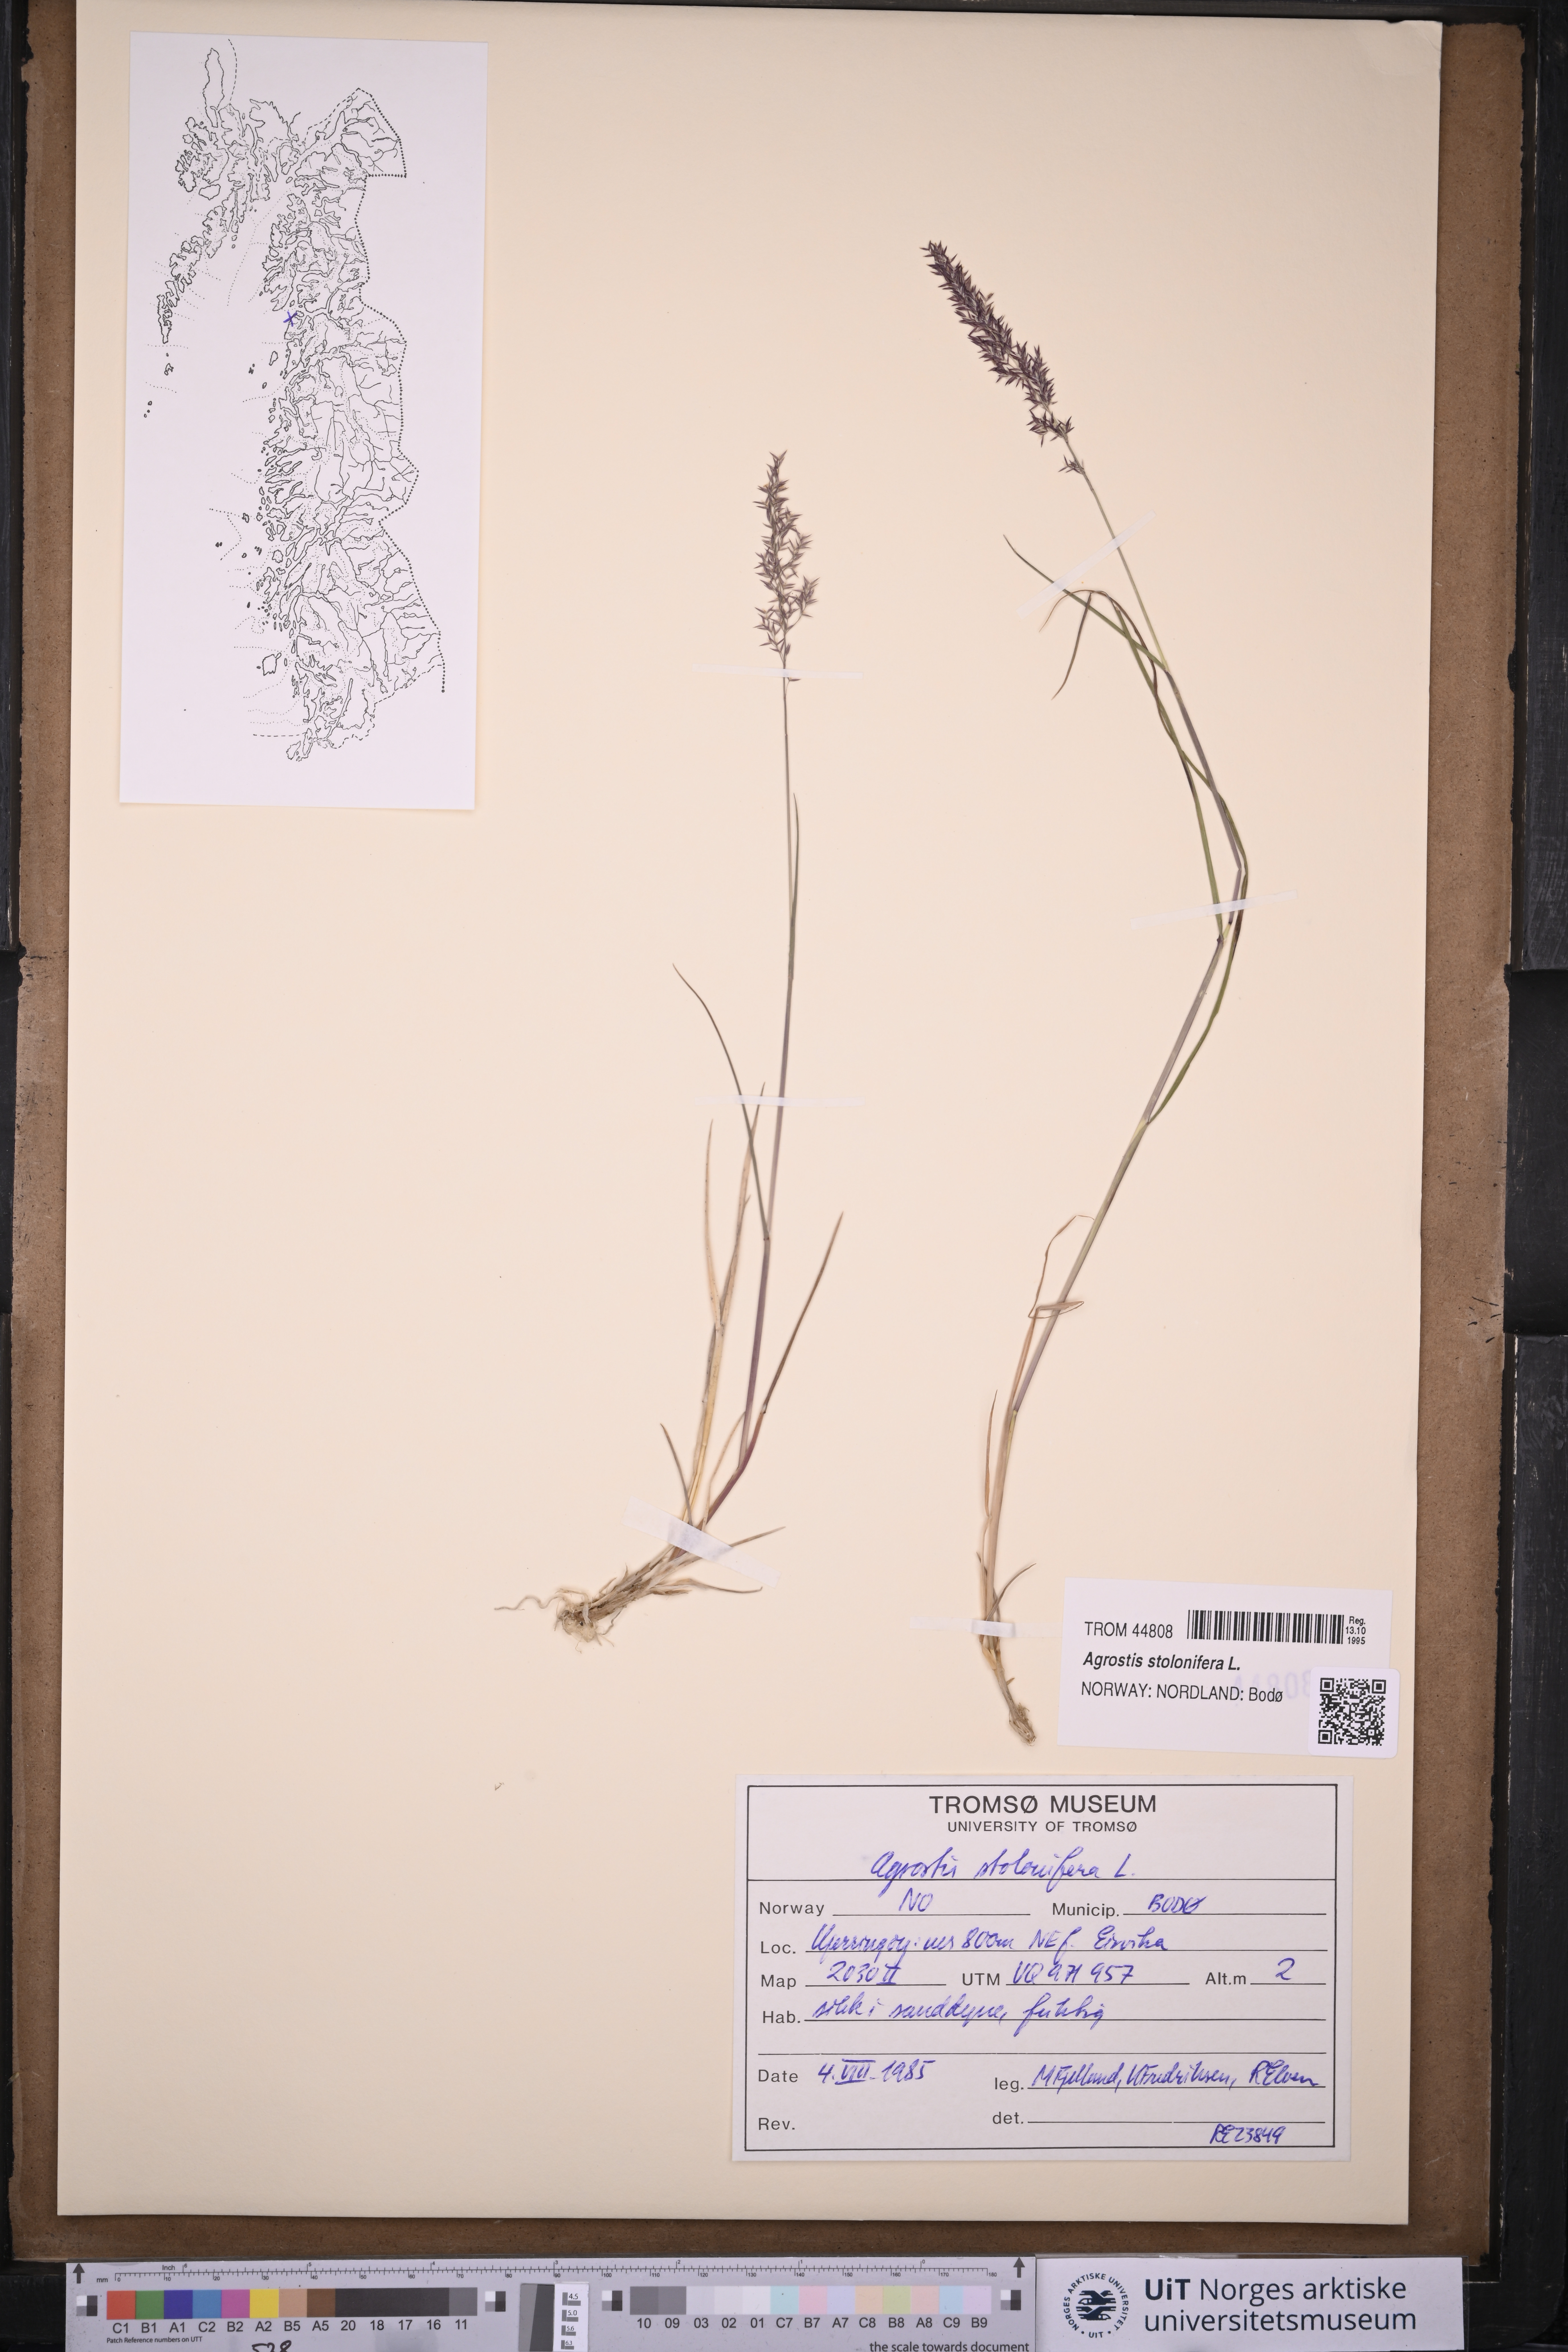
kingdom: Plantae
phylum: Tracheophyta
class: Liliopsida
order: Poales
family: Poaceae
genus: Agrostis
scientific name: Agrostis stolonifera
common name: Creeping bentgrass
